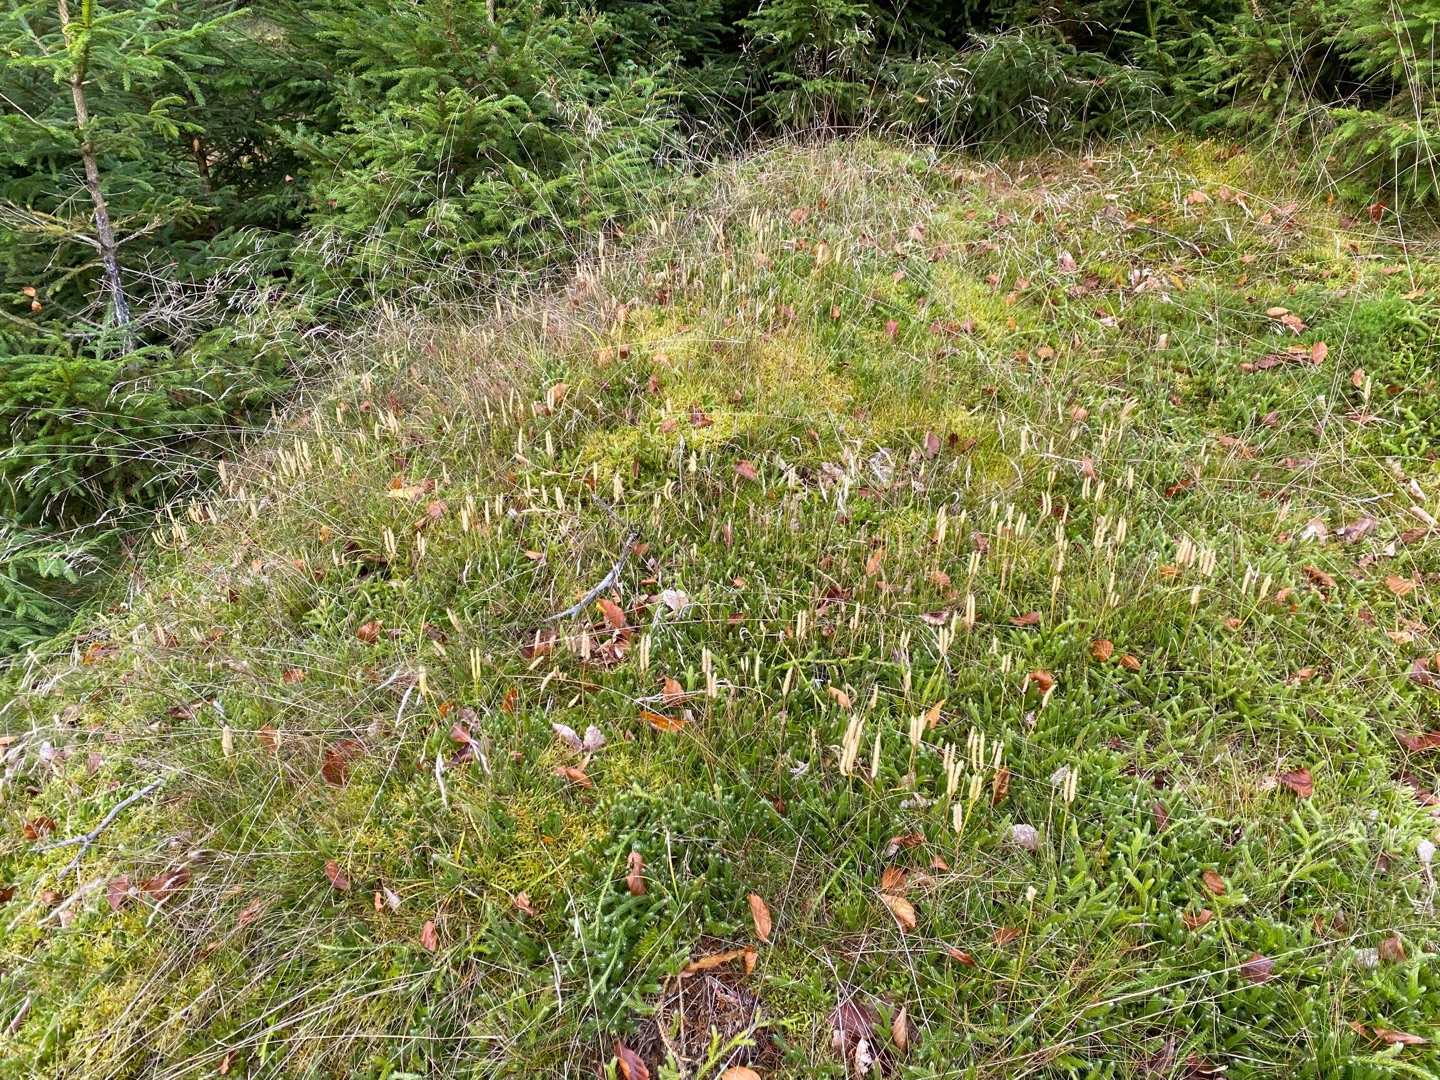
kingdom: Plantae
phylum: Tracheophyta
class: Lycopodiopsida
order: Lycopodiales
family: Lycopodiaceae
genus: Lycopodium
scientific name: Lycopodium clavatum
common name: Almindelig ulvefod
